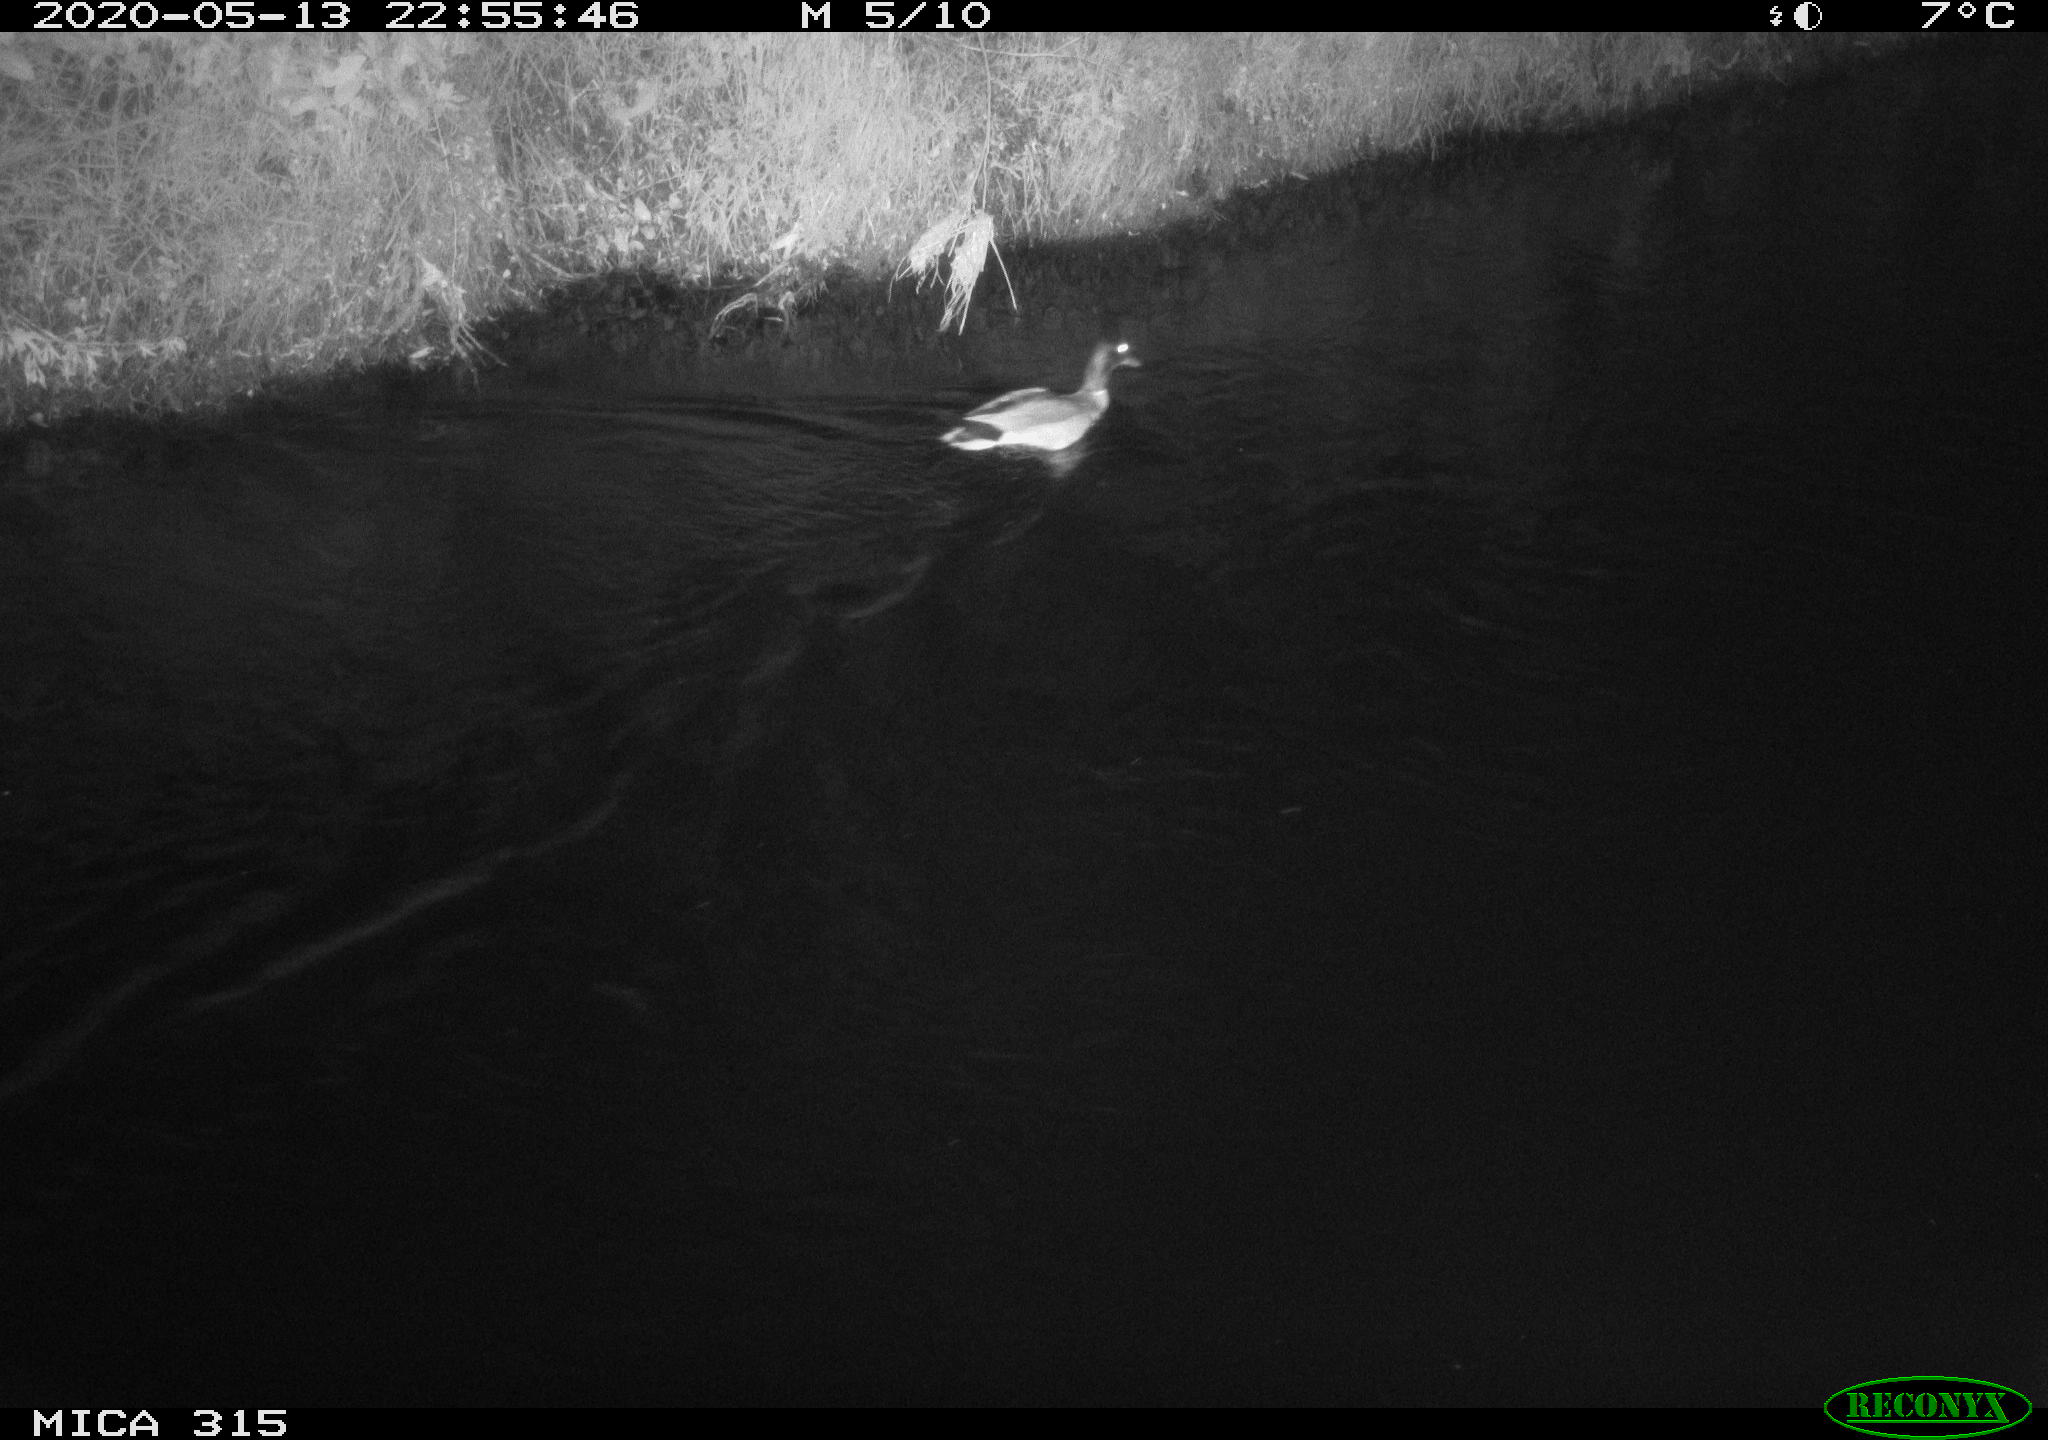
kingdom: Animalia
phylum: Chordata
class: Aves
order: Anseriformes
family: Anatidae
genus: Anas
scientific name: Anas platyrhynchos
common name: Mallard
